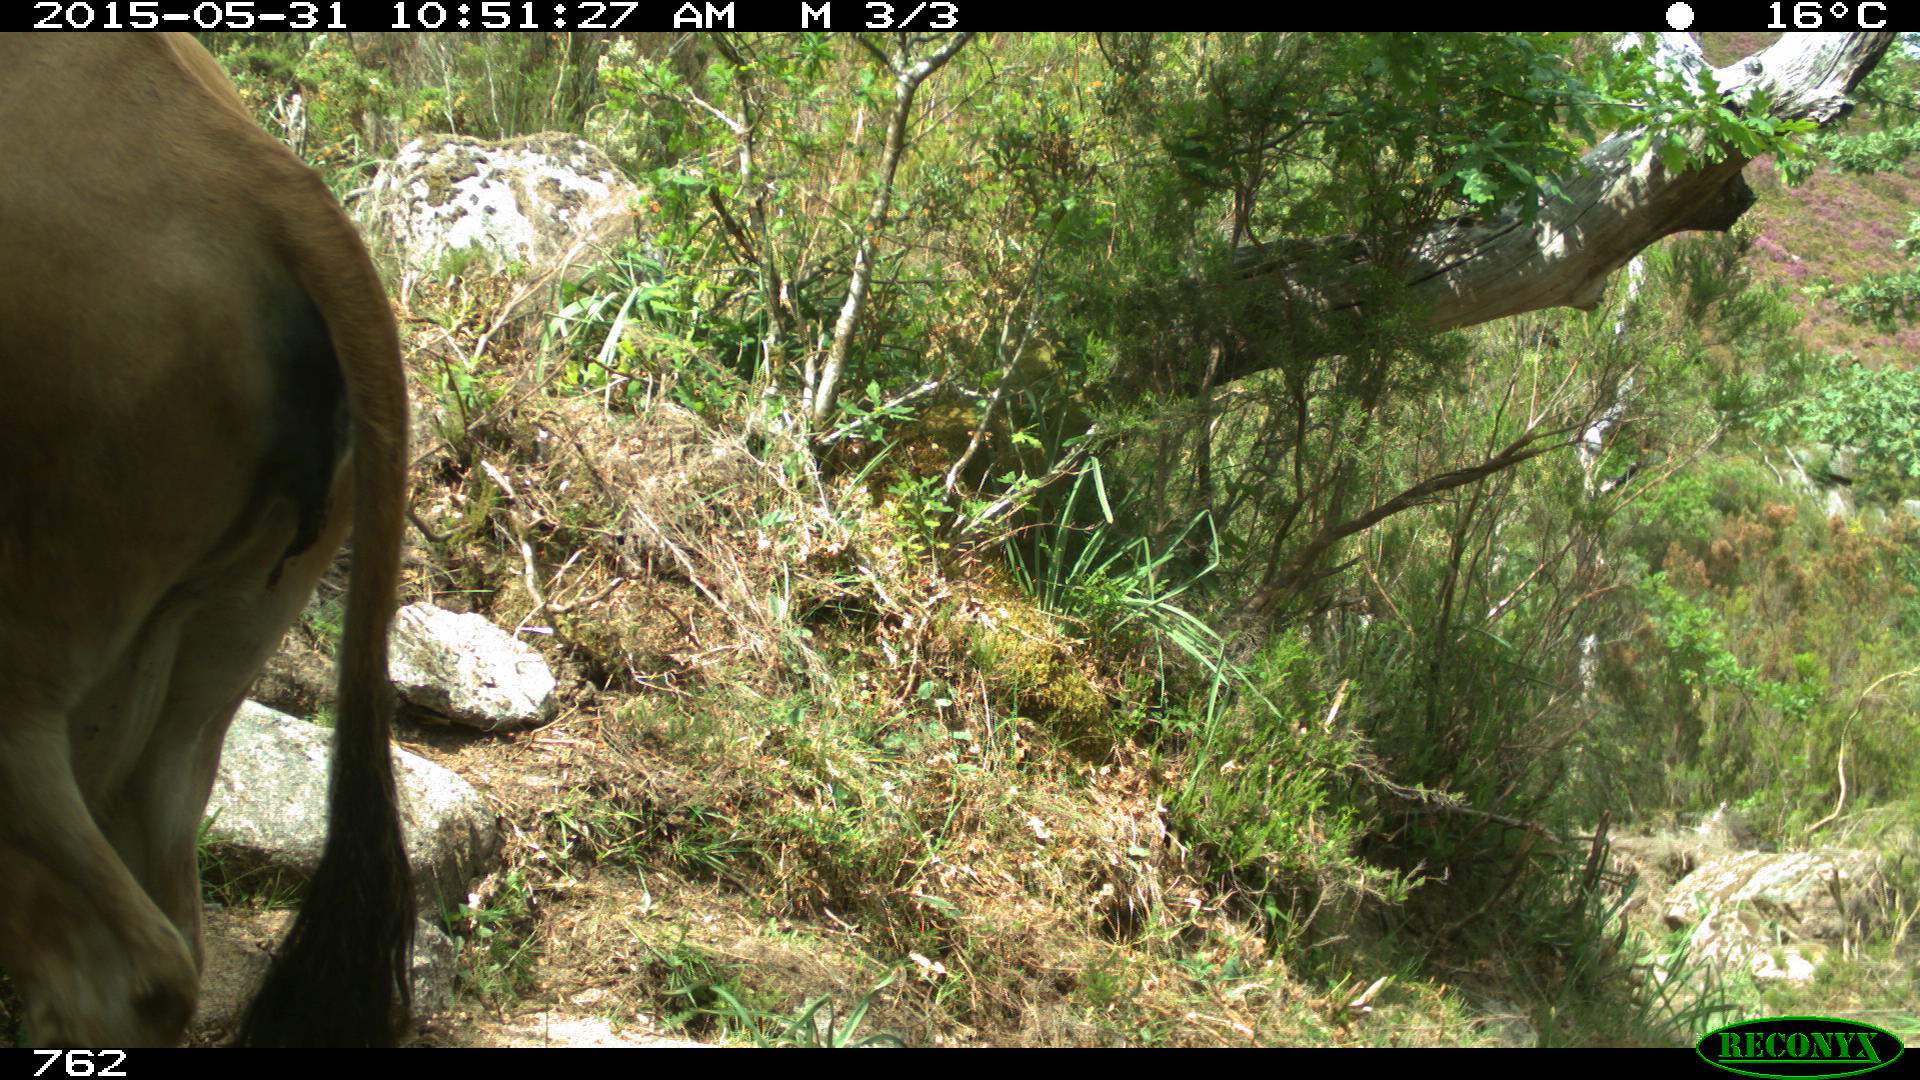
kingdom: Animalia
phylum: Chordata
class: Mammalia
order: Artiodactyla
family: Bovidae
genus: Bos
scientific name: Bos taurus
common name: Domesticated cattle
